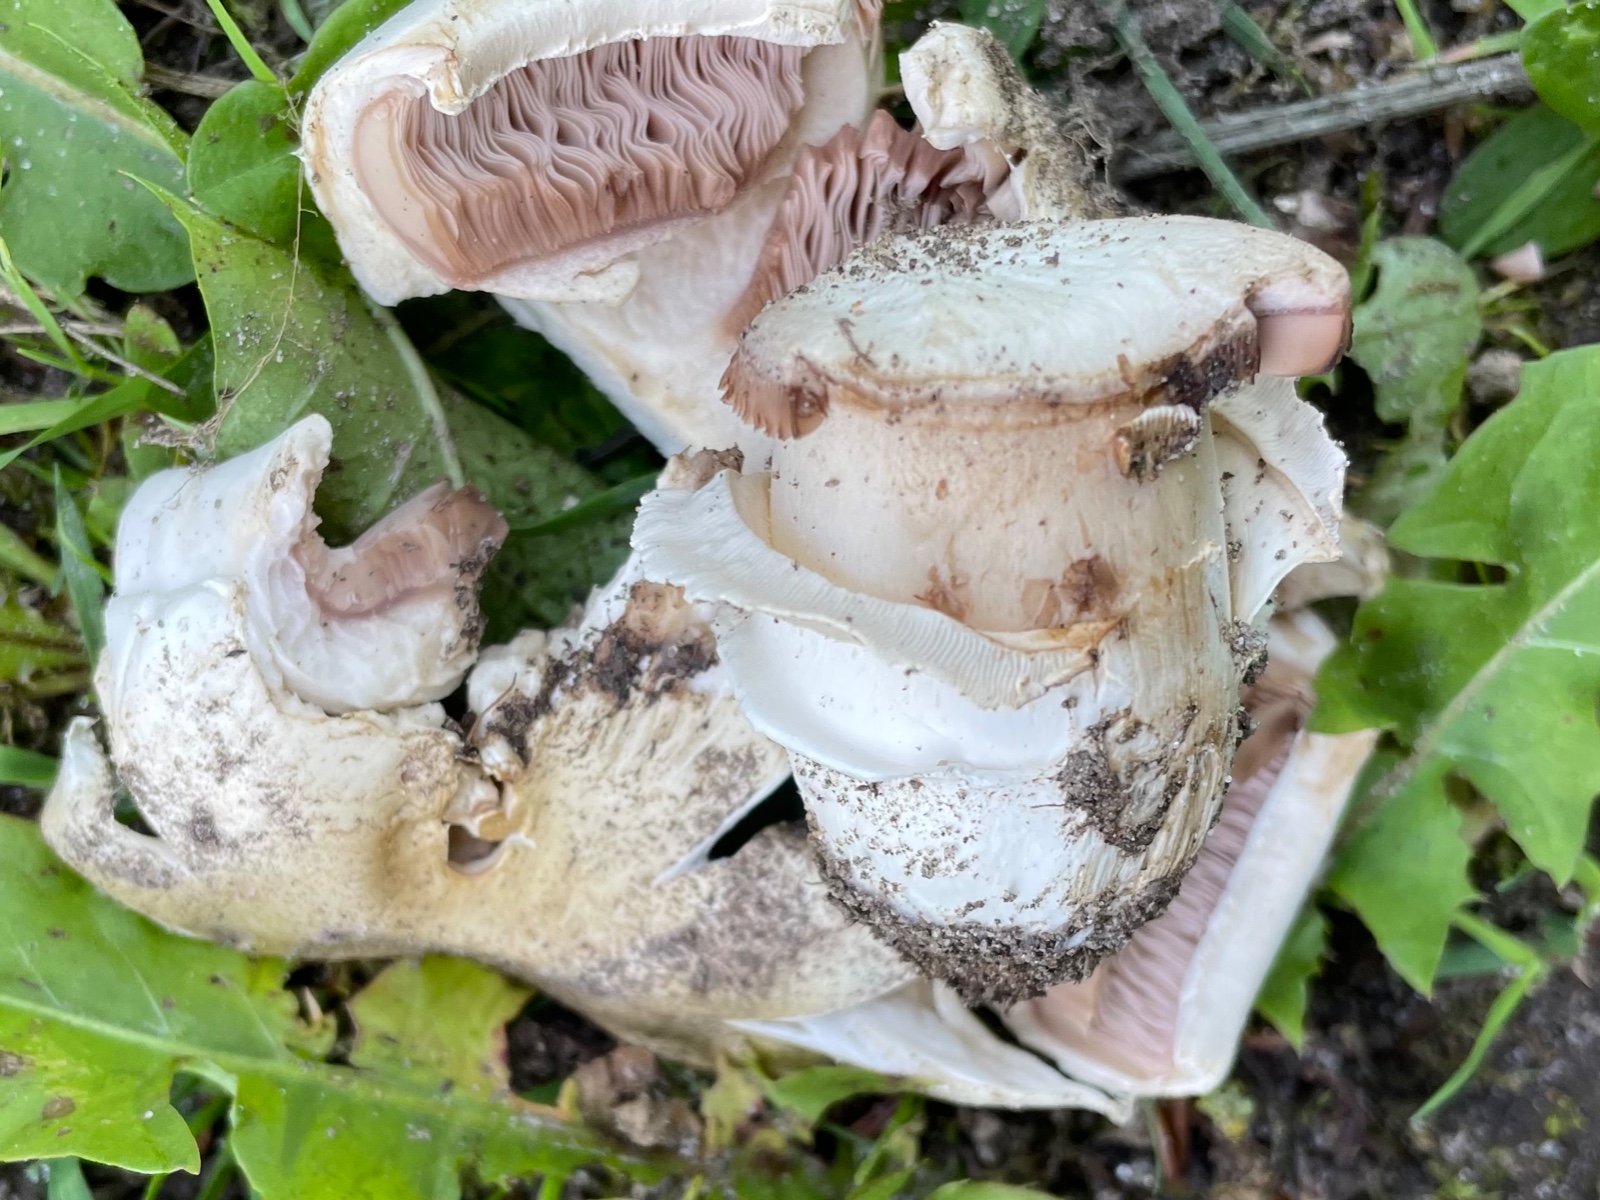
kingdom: Fungi
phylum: Basidiomycota
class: Agaricomycetes
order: Agaricales
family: Agaricaceae
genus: Agaricus
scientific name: Agaricus bitorquis
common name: vej-champignon
